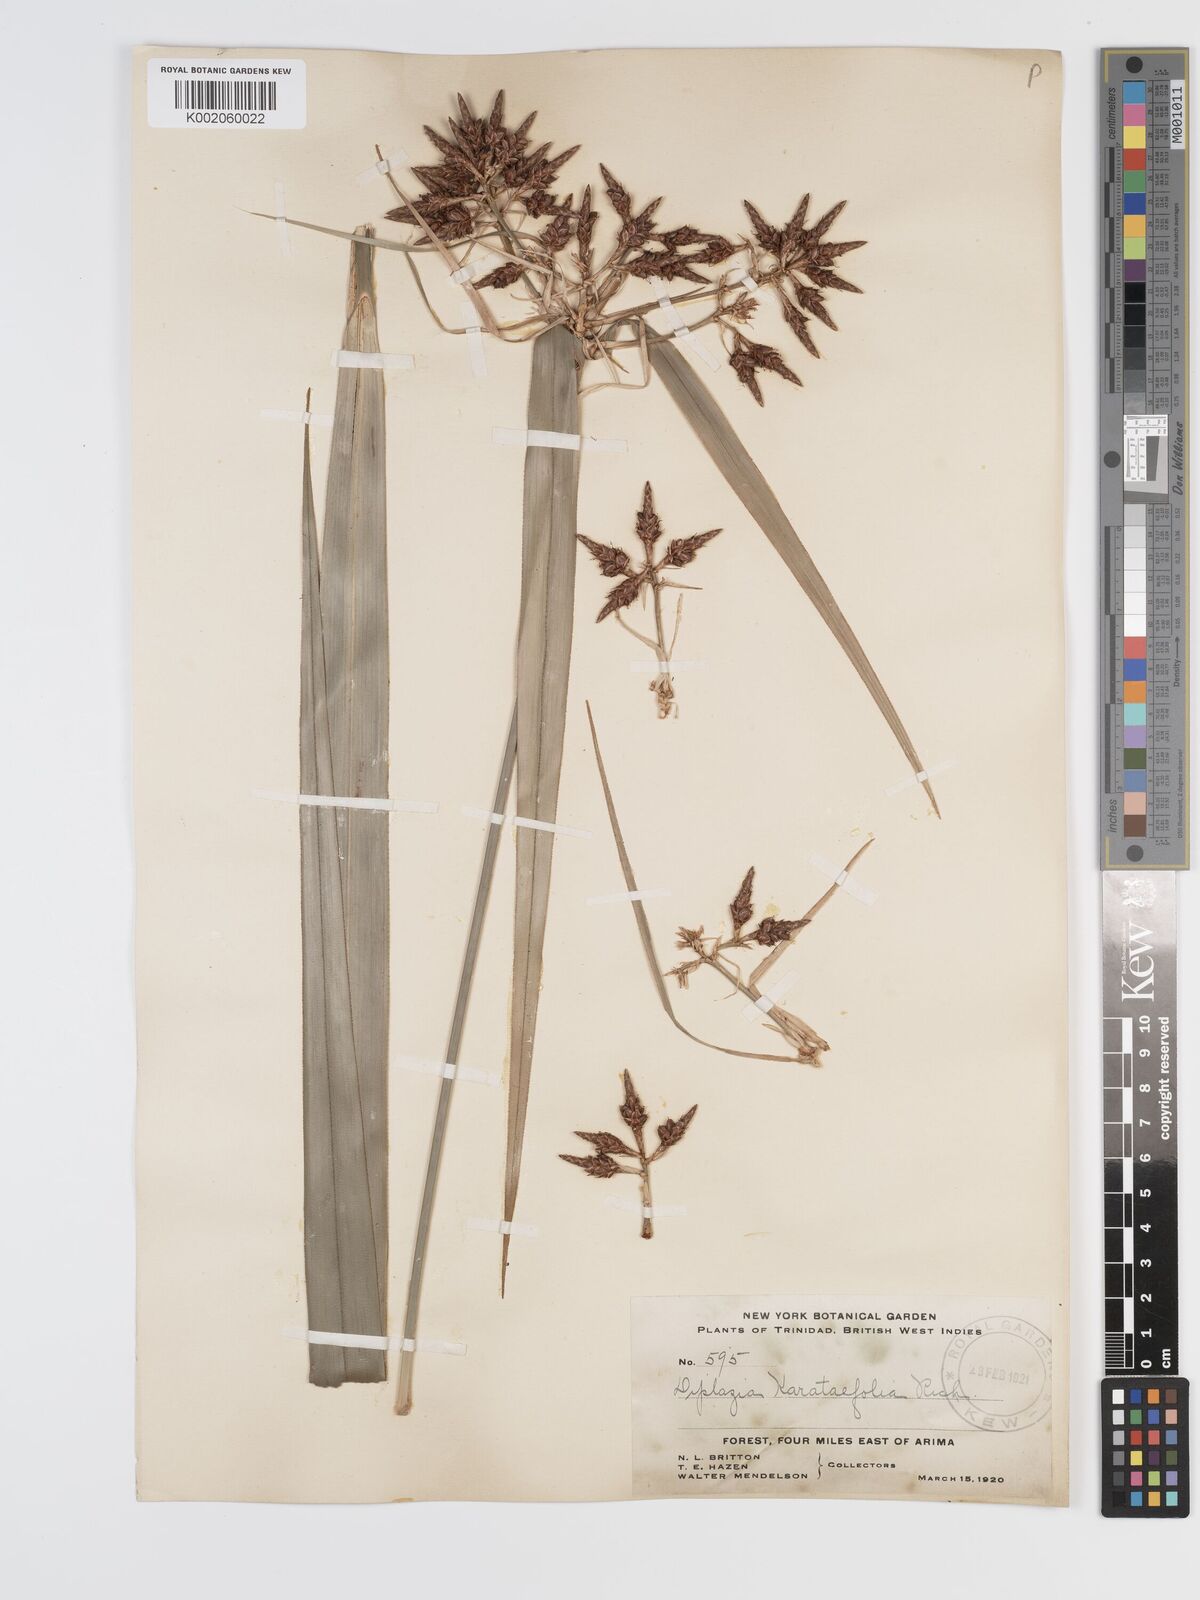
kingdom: Plantae
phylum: Tracheophyta
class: Liliopsida
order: Poales
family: Cyperaceae
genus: Diplasia
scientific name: Diplasia karatifolia
